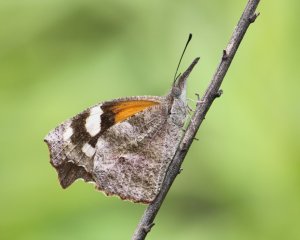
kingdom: Animalia
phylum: Arthropoda
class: Insecta
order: Lepidoptera
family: Nymphalidae
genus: Libytheana
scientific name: Libytheana carinenta
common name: American Snout
